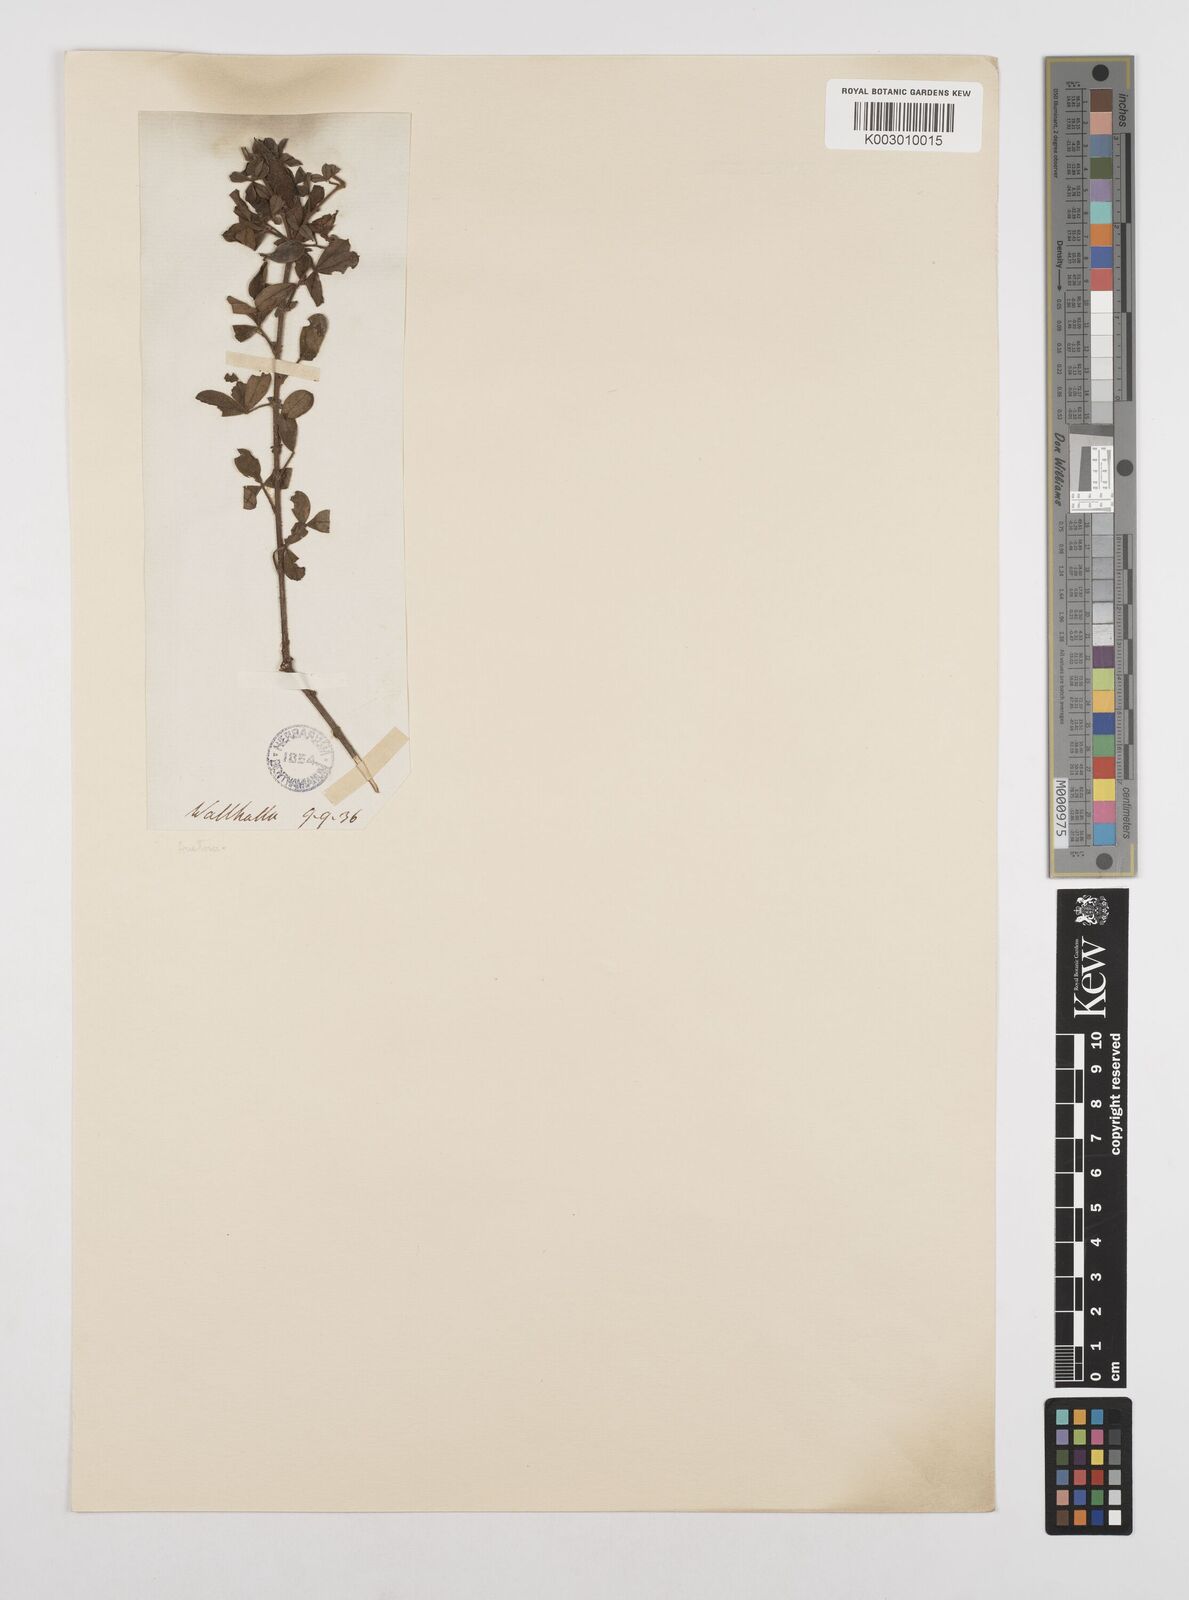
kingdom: Plantae
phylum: Tracheophyta
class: Magnoliopsida
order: Fabales
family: Fabaceae
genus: Chamaecytisus
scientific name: Chamaecytisus hirsutus
